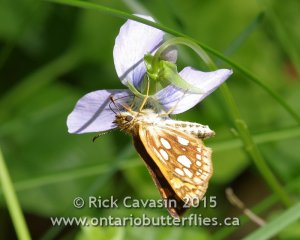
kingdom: Animalia
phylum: Arthropoda
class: Insecta
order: Lepidoptera
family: Hesperiidae
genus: Carterocephalus
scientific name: Carterocephalus palaemon
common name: Chequered Skipper
